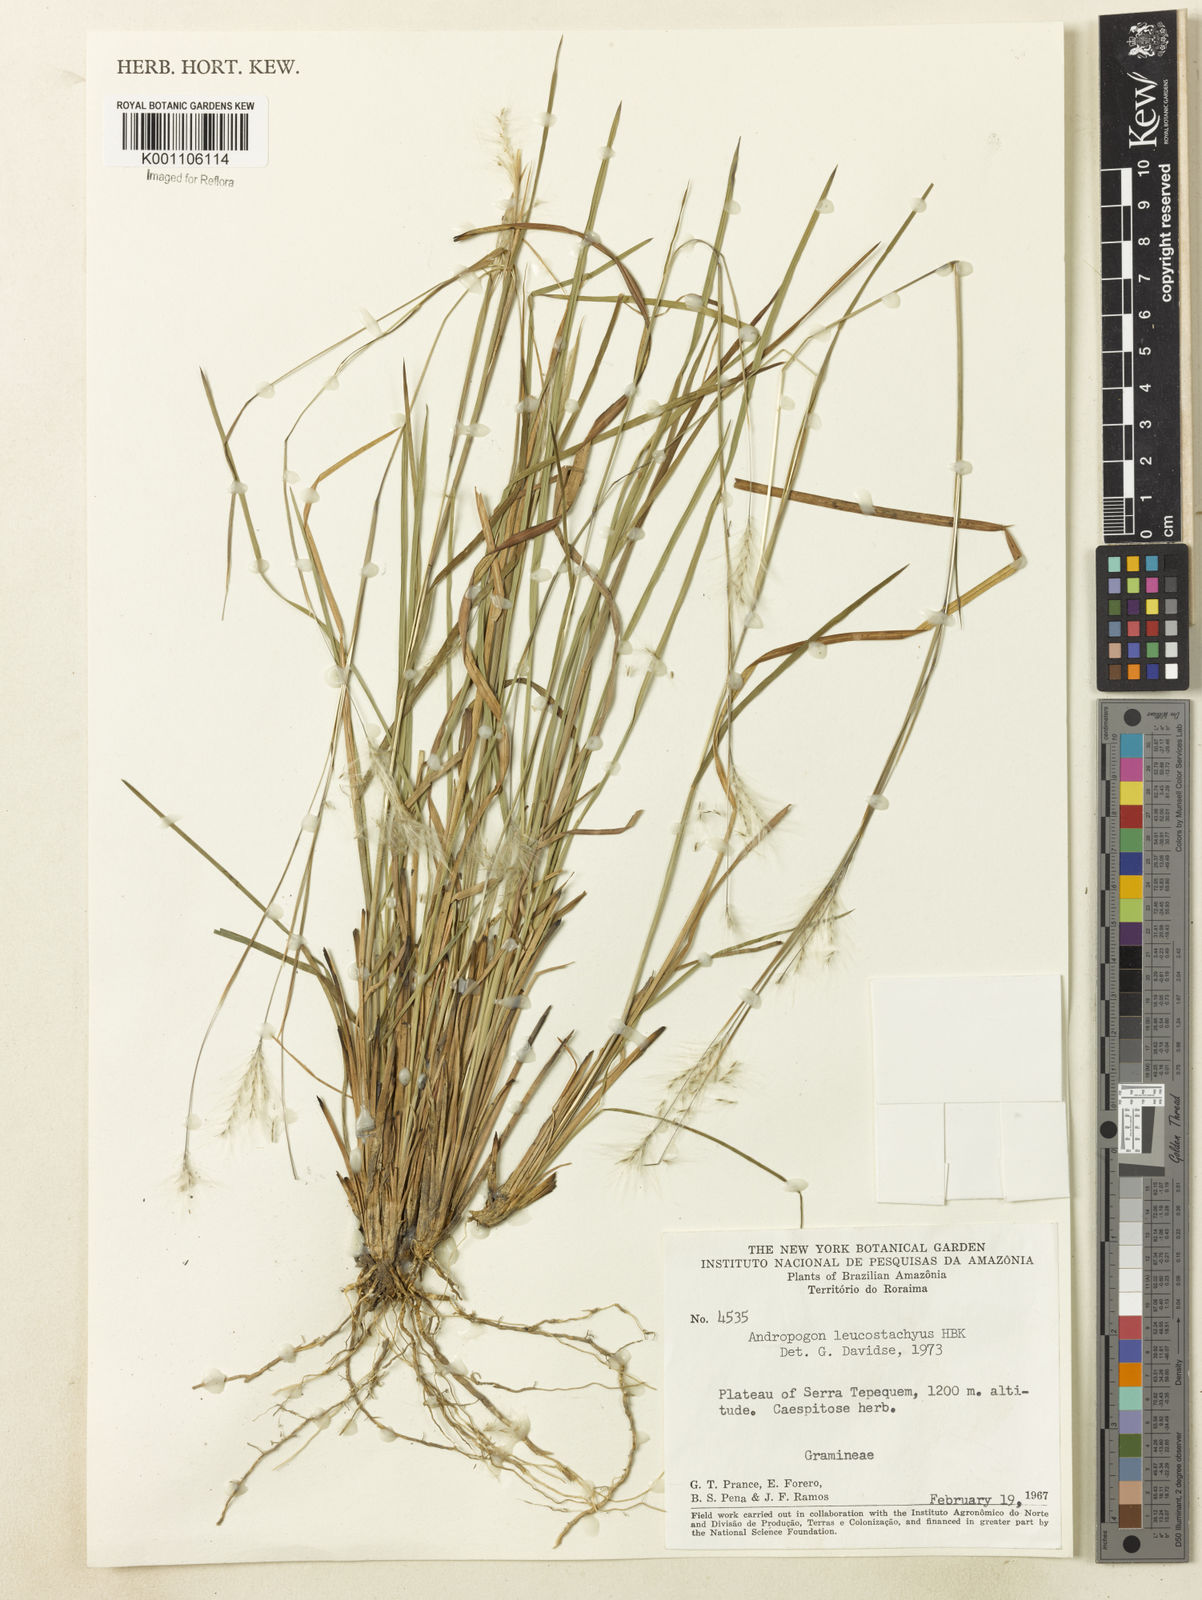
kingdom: Plantae
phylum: Tracheophyta
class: Liliopsida
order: Poales
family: Poaceae
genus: Andropogon
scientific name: Andropogon leucostachyus
